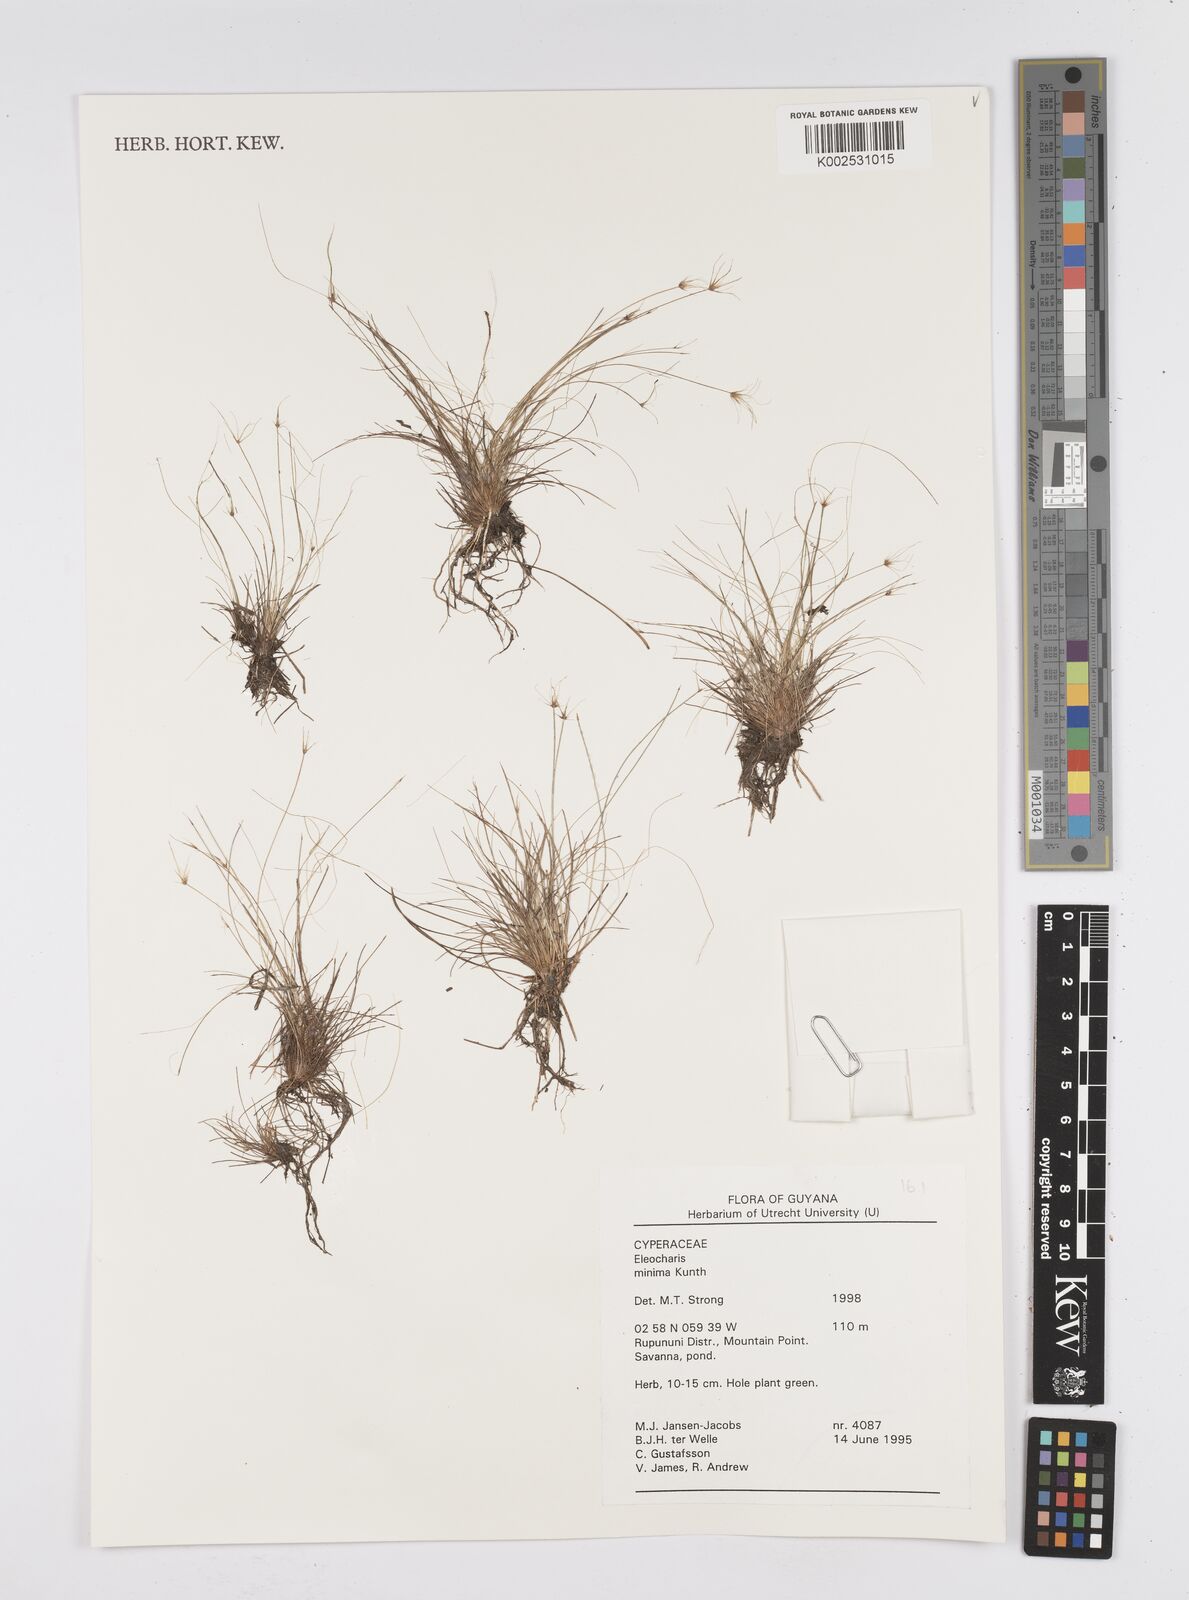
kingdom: Plantae
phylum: Tracheophyta
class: Liliopsida
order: Poales
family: Cyperaceae
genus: Eleocharis
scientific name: Eleocharis minima
